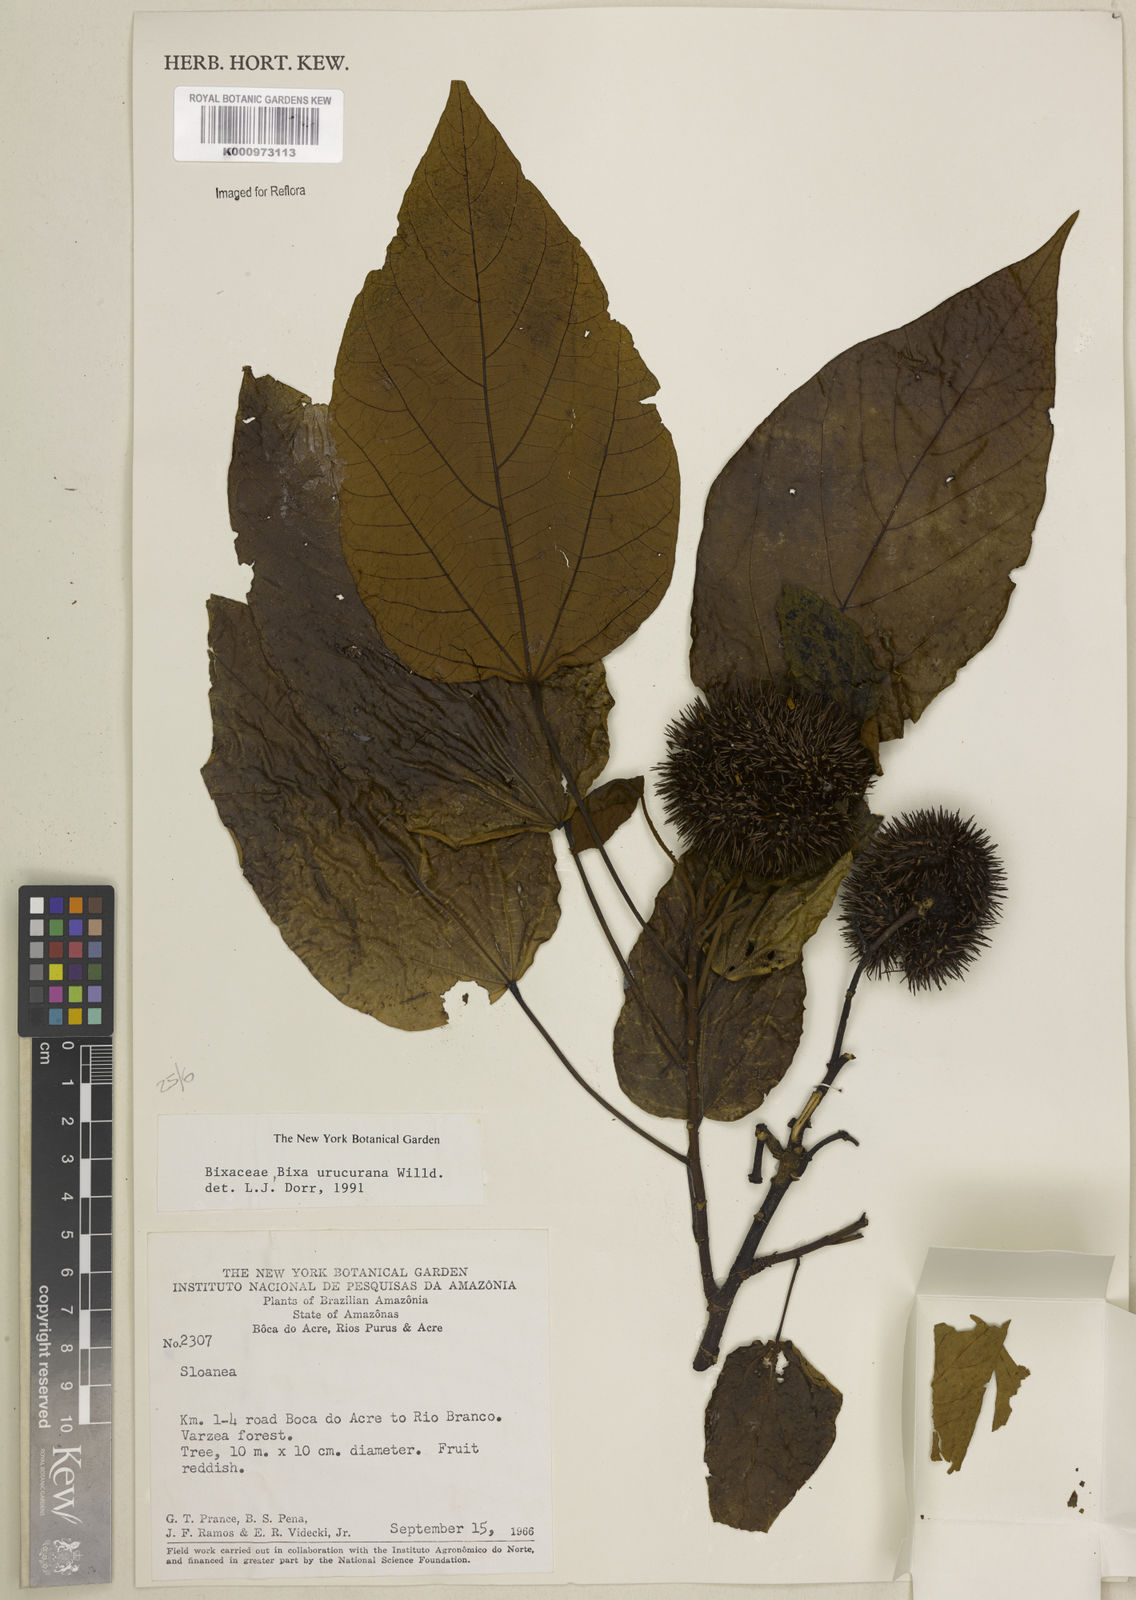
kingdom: Plantae
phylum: Tracheophyta
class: Magnoliopsida
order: Malvales
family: Bixaceae
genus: Bixa
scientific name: Bixa urucurana
